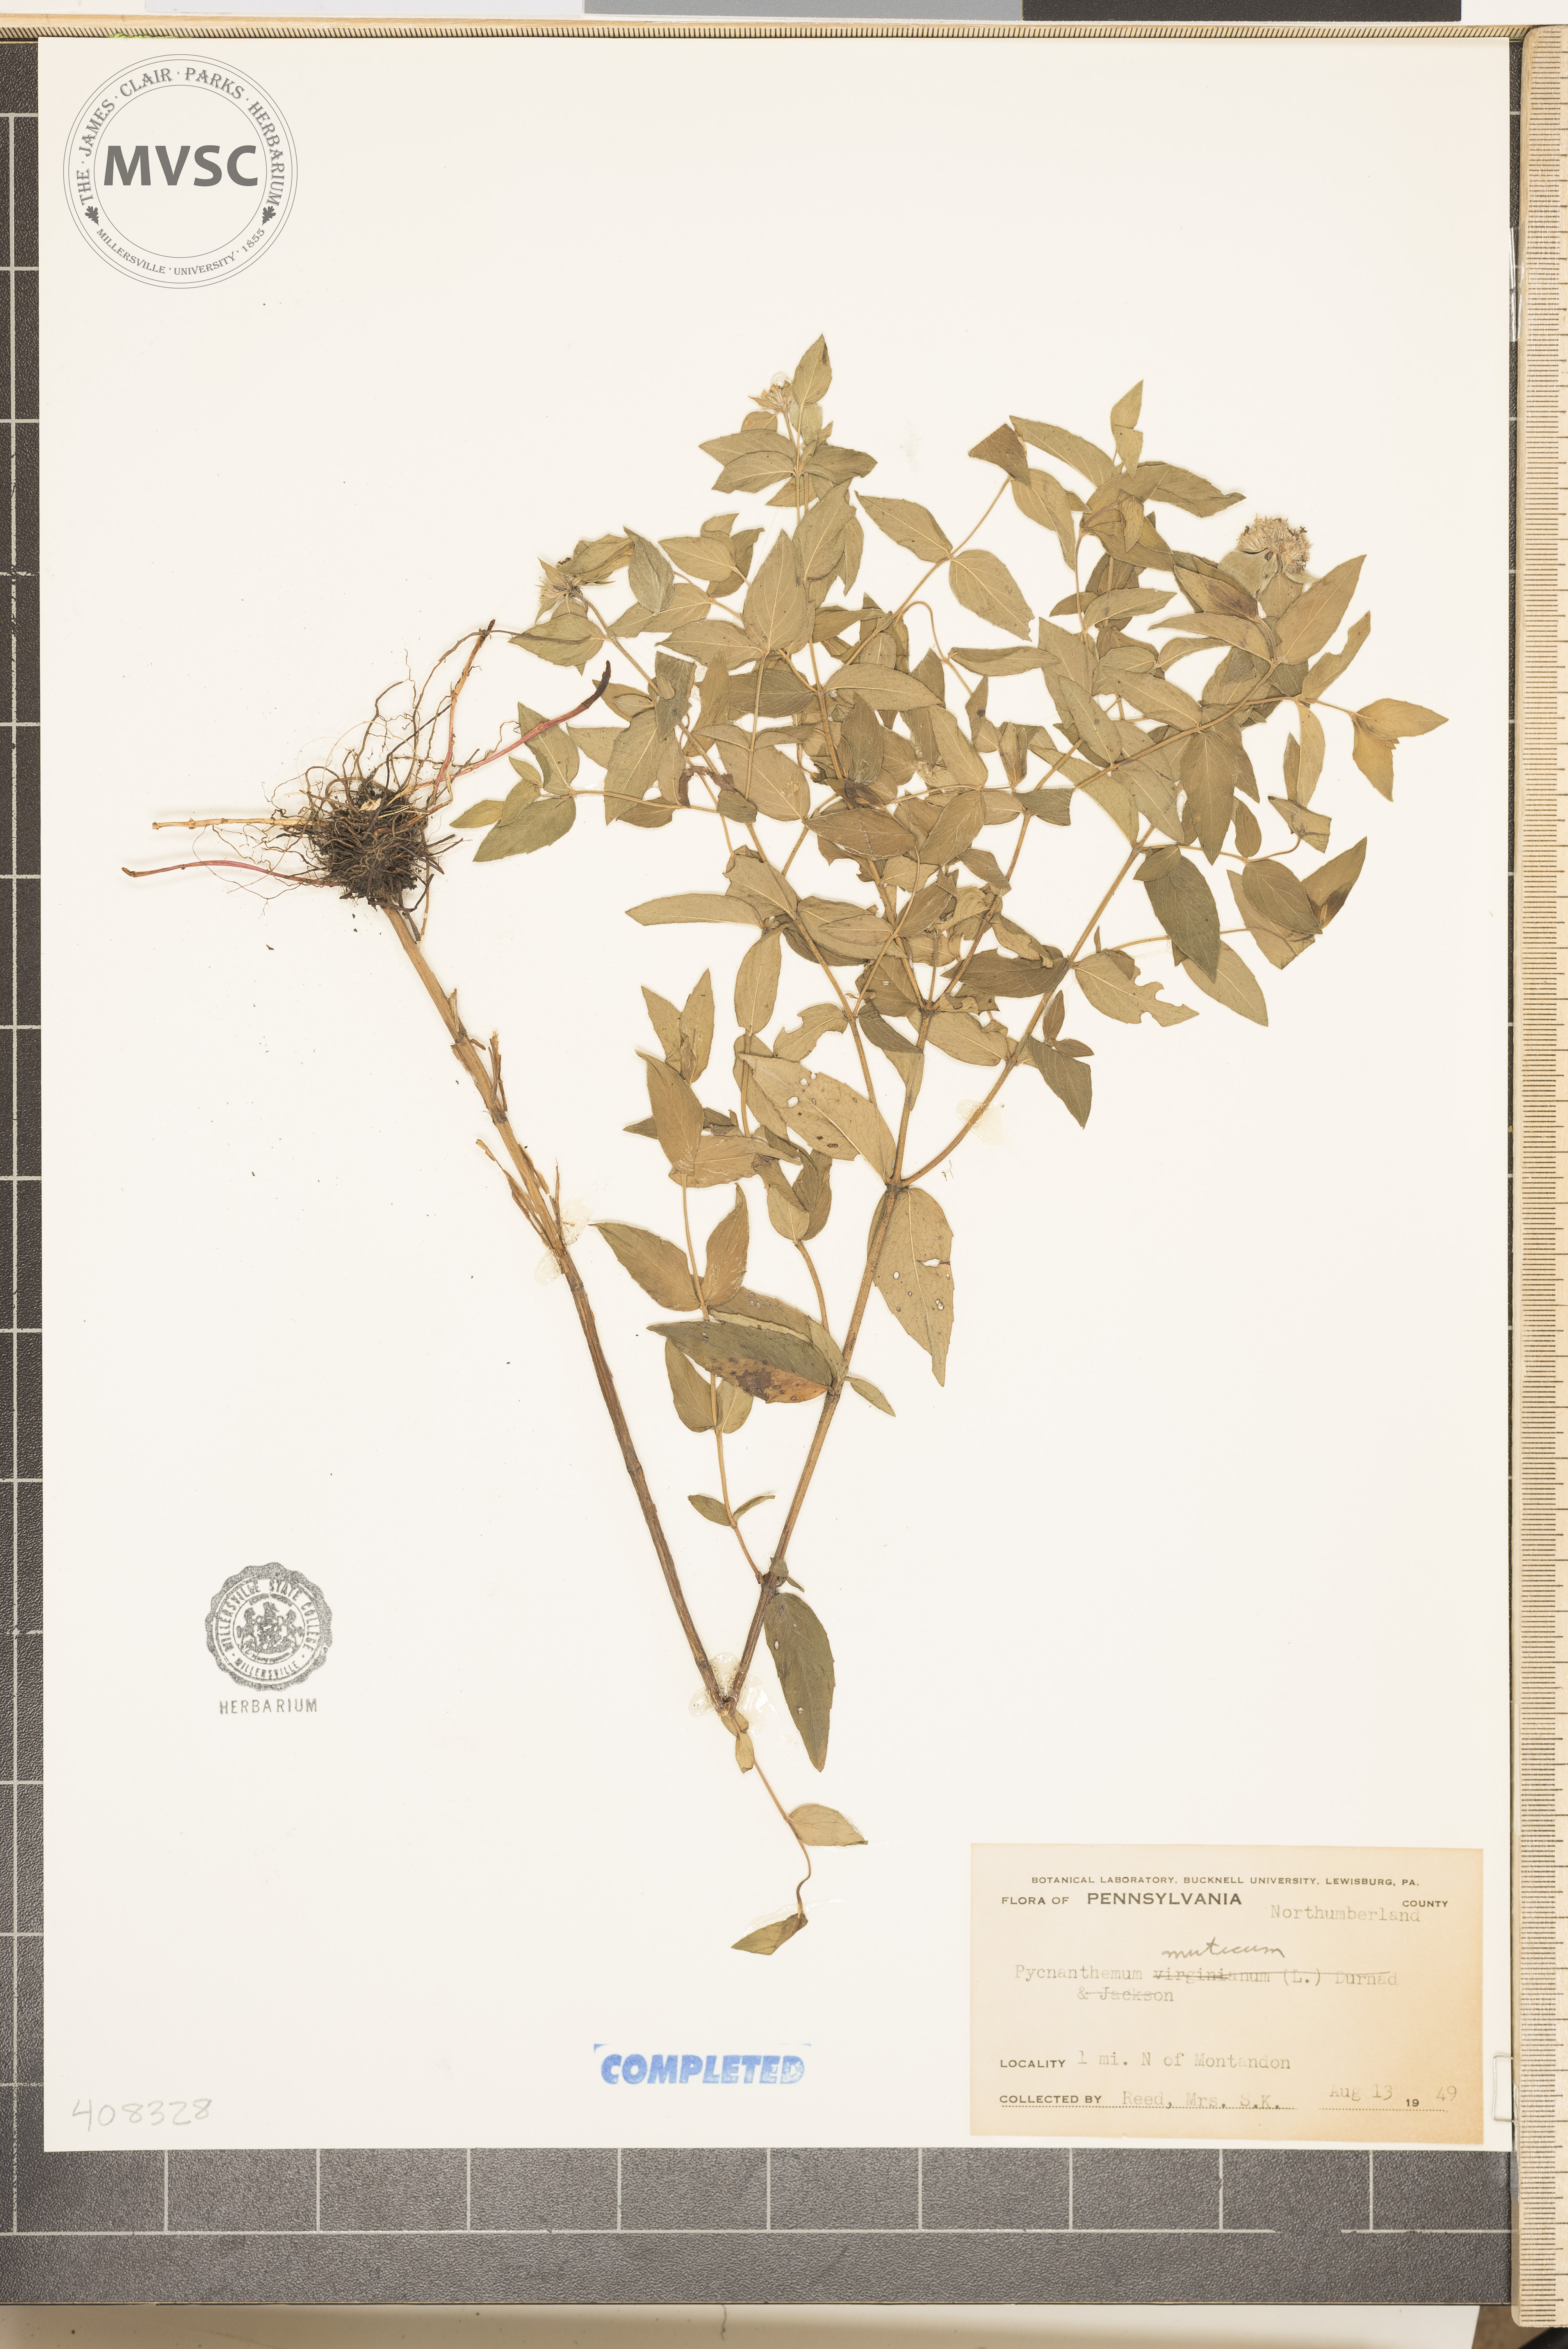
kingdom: Plantae
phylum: Tracheophyta
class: Magnoliopsida
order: Lamiales
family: Lamiaceae
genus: Pycnanthemum
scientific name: Pycnanthemum muticum
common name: Blunt mountain-mint
